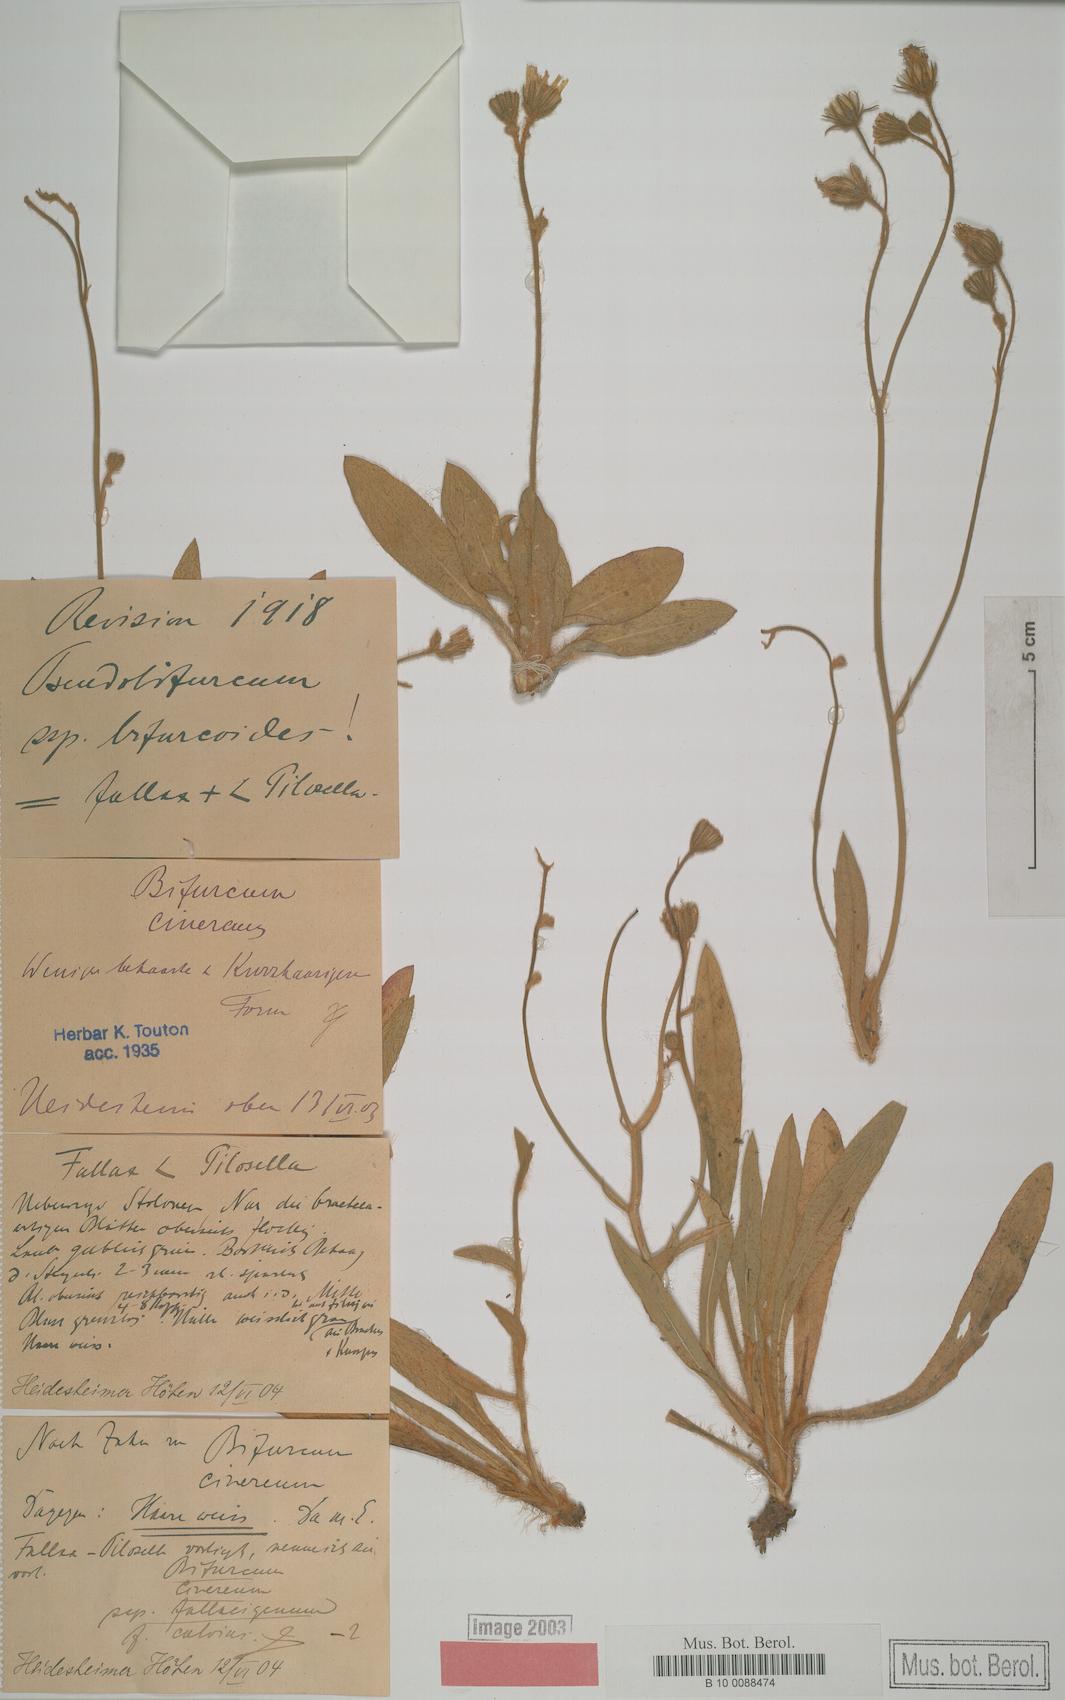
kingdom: Plantae
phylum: Tracheophyta
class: Magnoliopsida
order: Asterales
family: Asteraceae
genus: Hieracium
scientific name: Hieracium bifurcum
